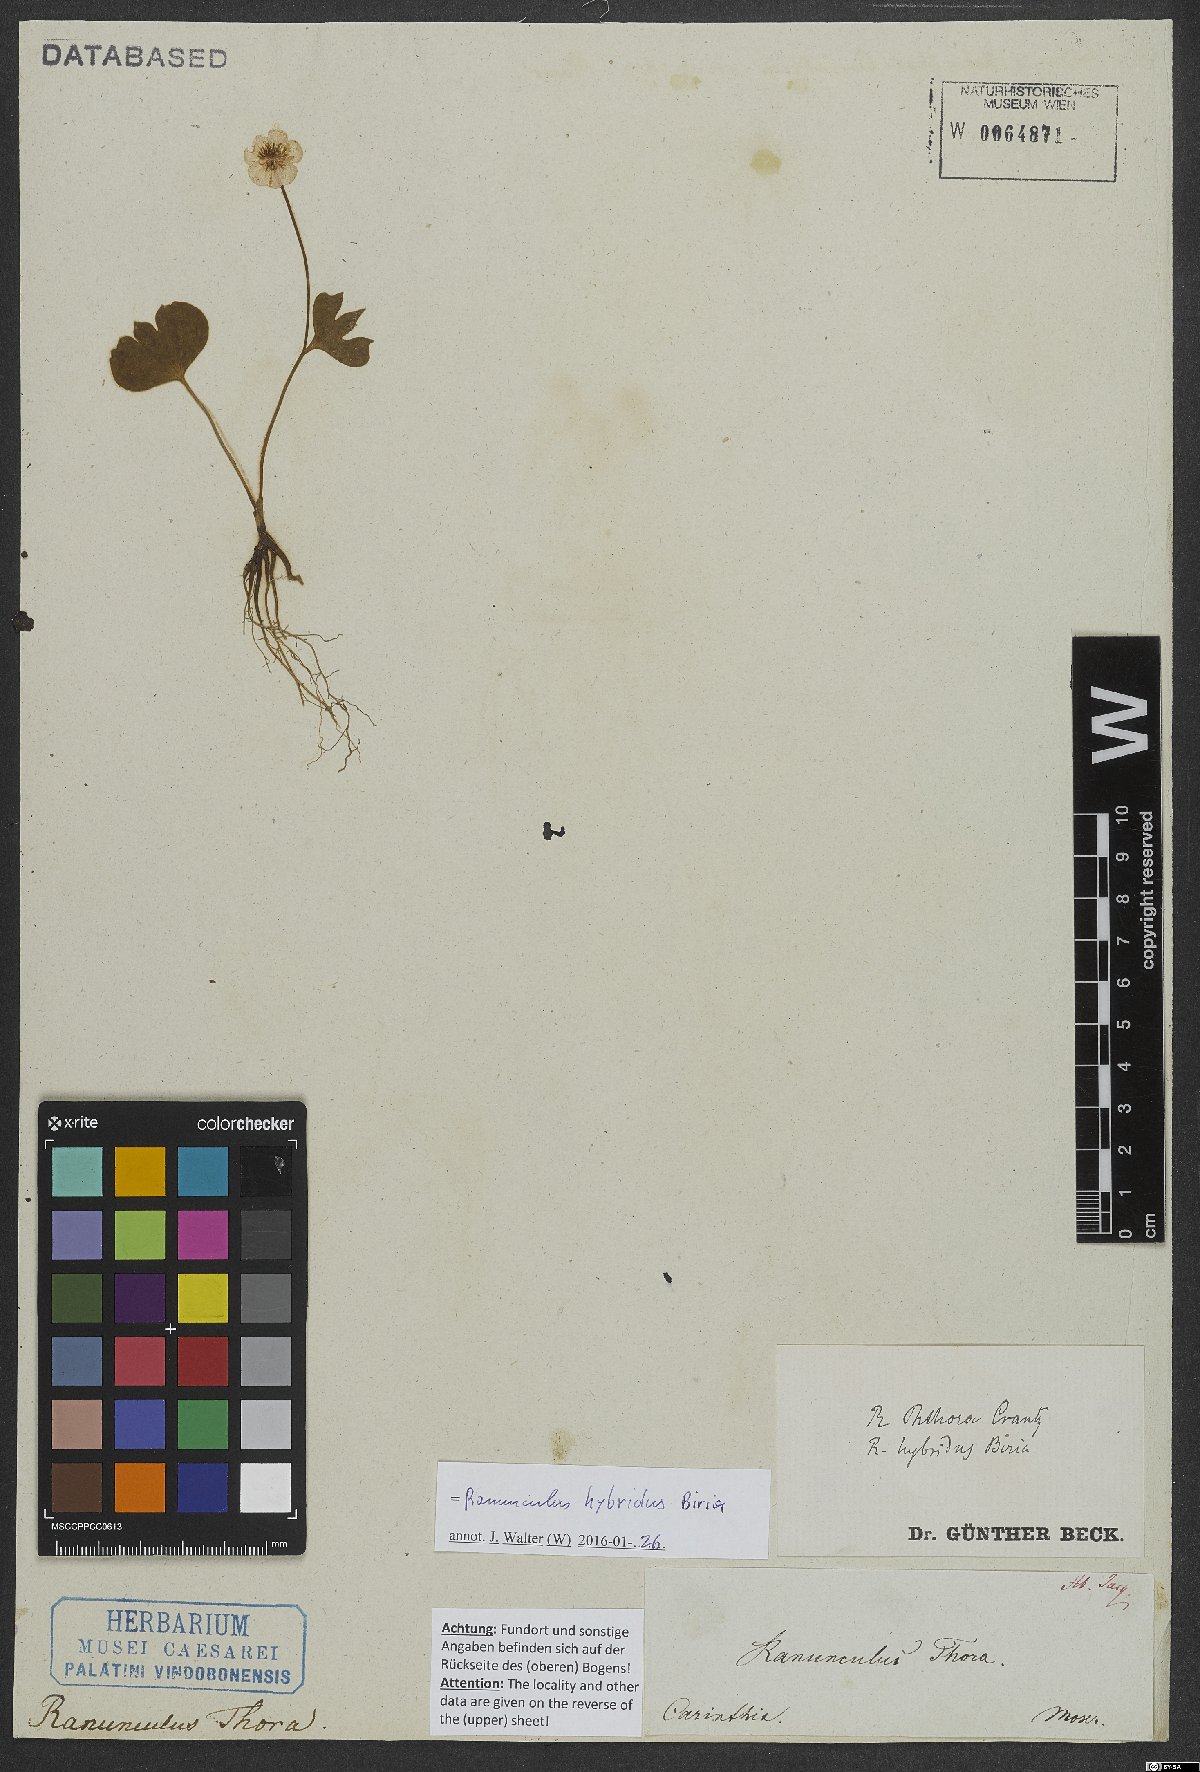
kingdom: Plantae
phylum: Tracheophyta
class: Magnoliopsida
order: Ranunculales
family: Ranunculaceae
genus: Ranunculus
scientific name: Ranunculus hybridus
